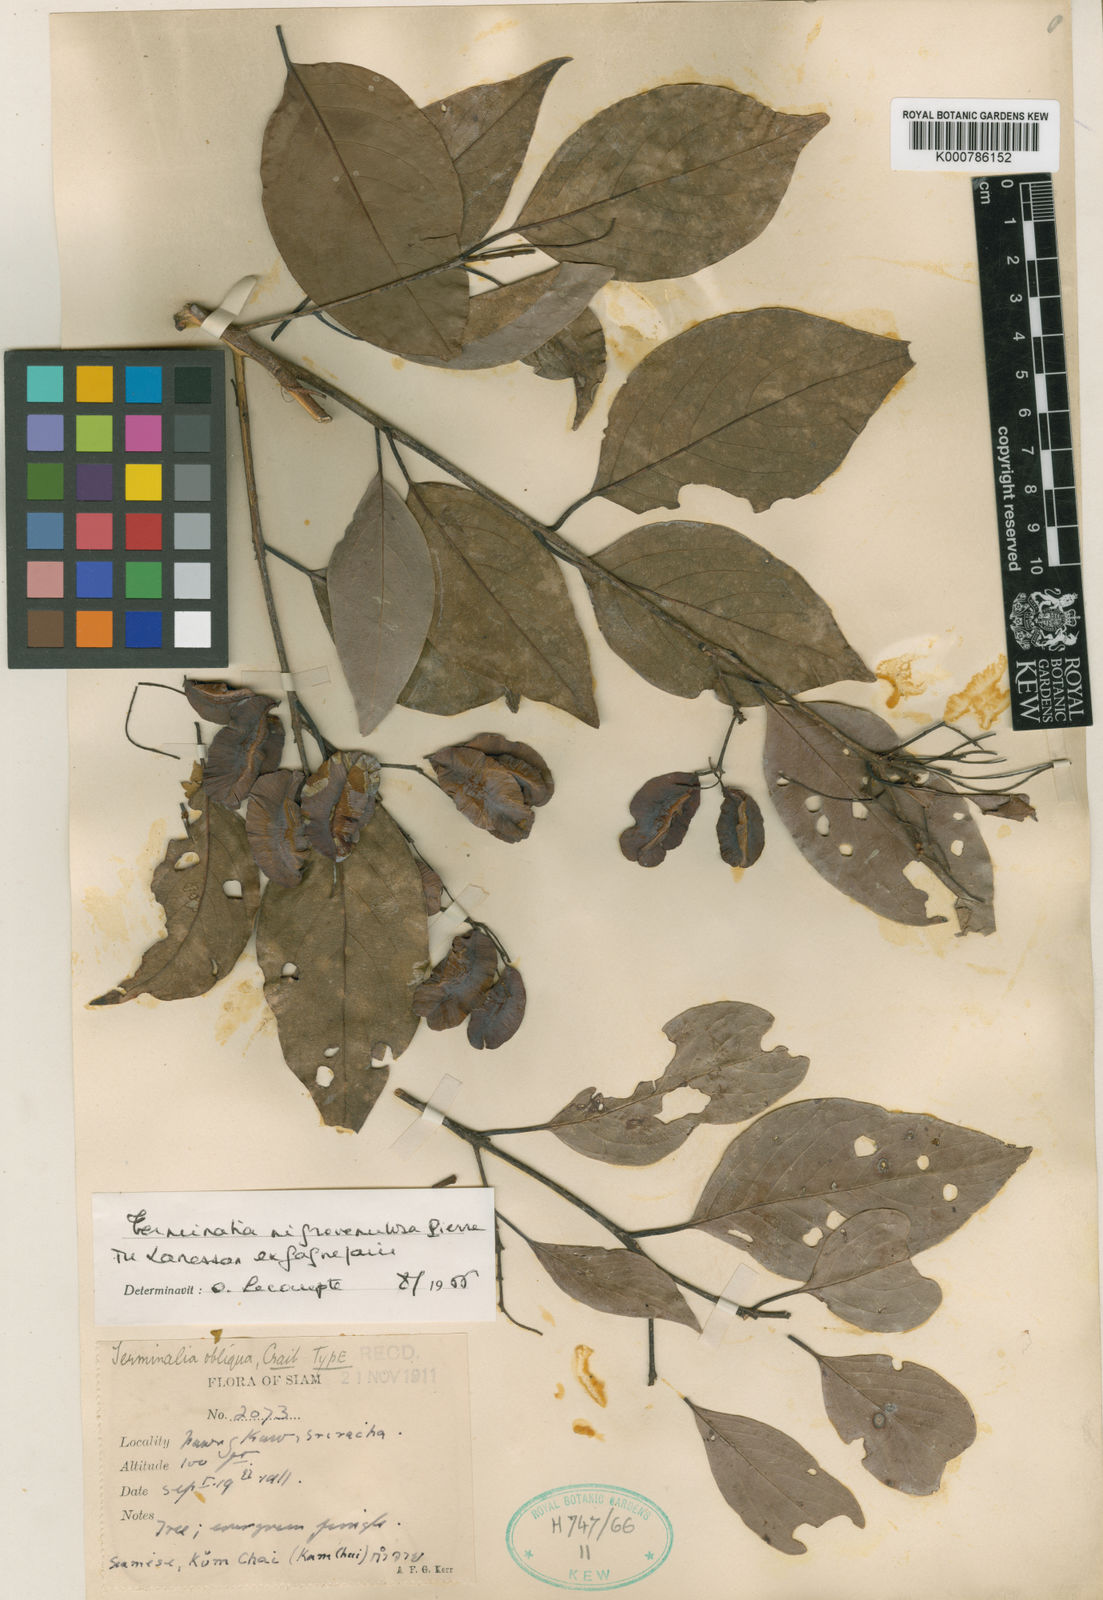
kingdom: Plantae
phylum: Tracheophyta
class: Magnoliopsida
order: Myrtales
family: Combretaceae
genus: Terminalia
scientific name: Terminalia franchetii
